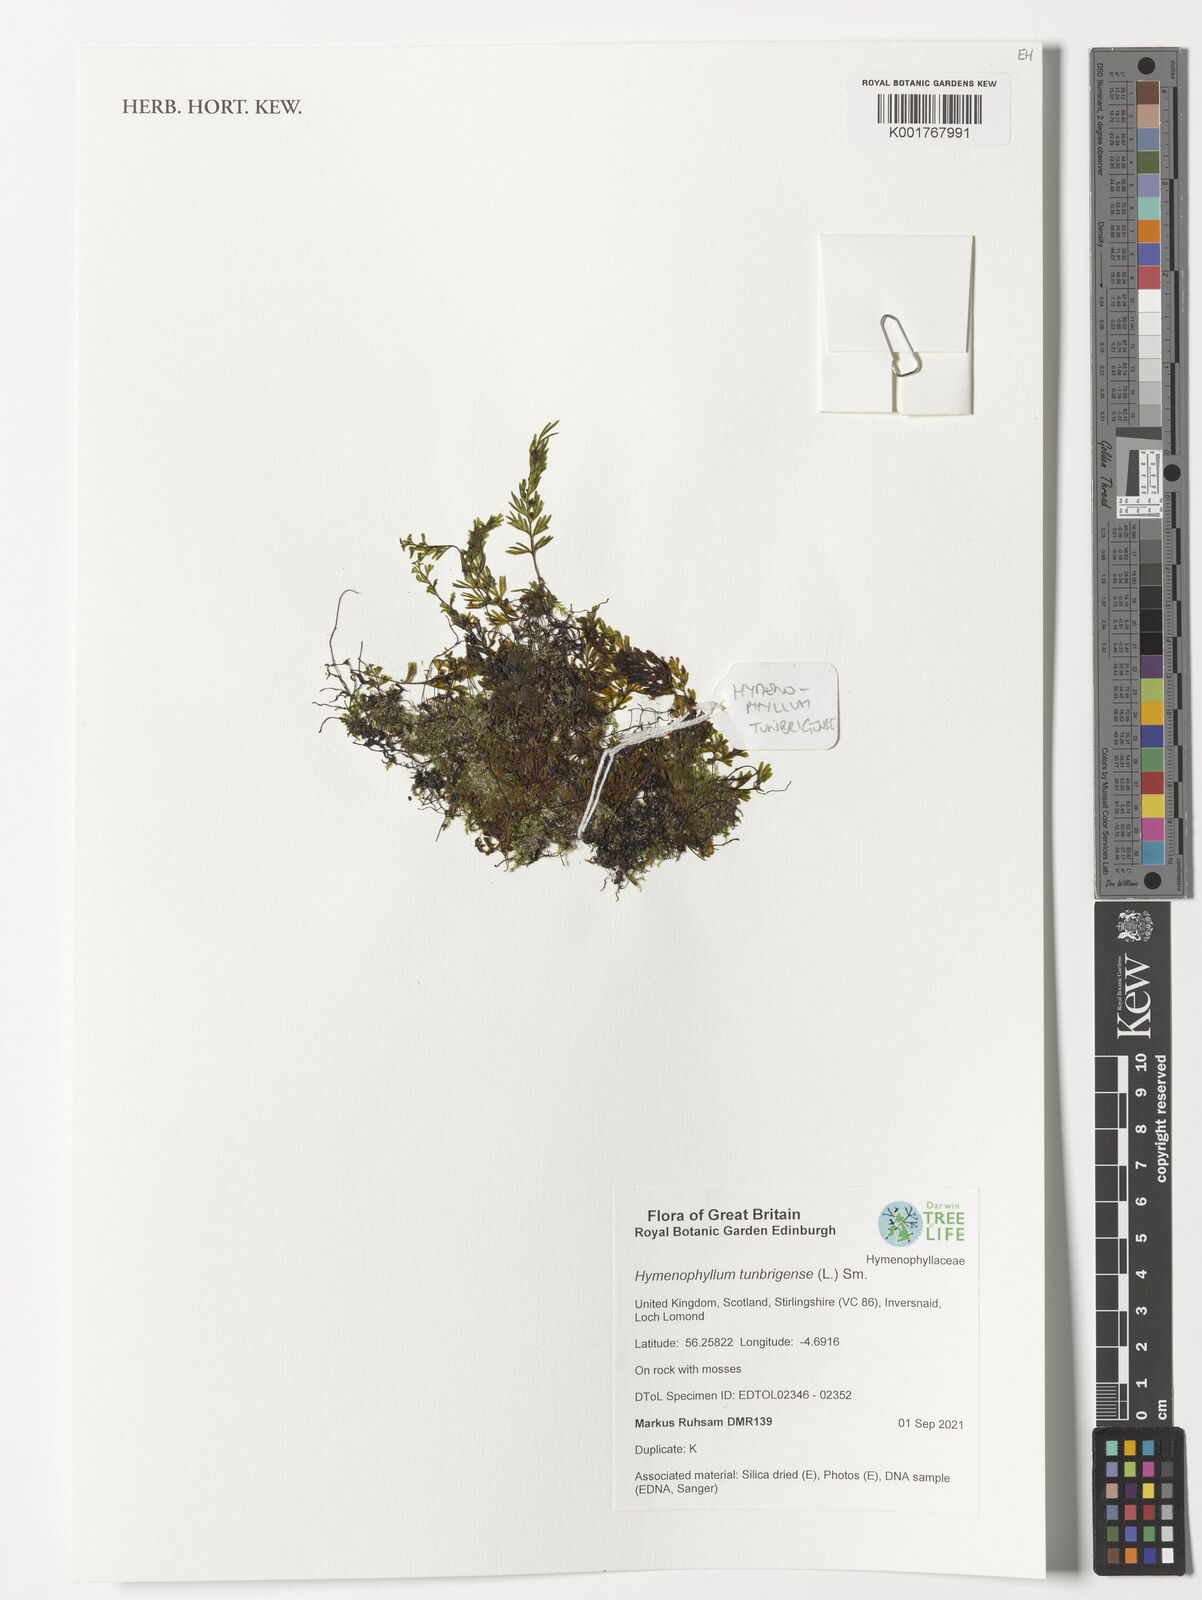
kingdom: Plantae
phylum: Tracheophyta
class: Polypodiopsida
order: Hymenophyllales
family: Hymenophyllaceae
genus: Hymenophyllum
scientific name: Hymenophyllum tunbrigense
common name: Tunbridge filmy fern
